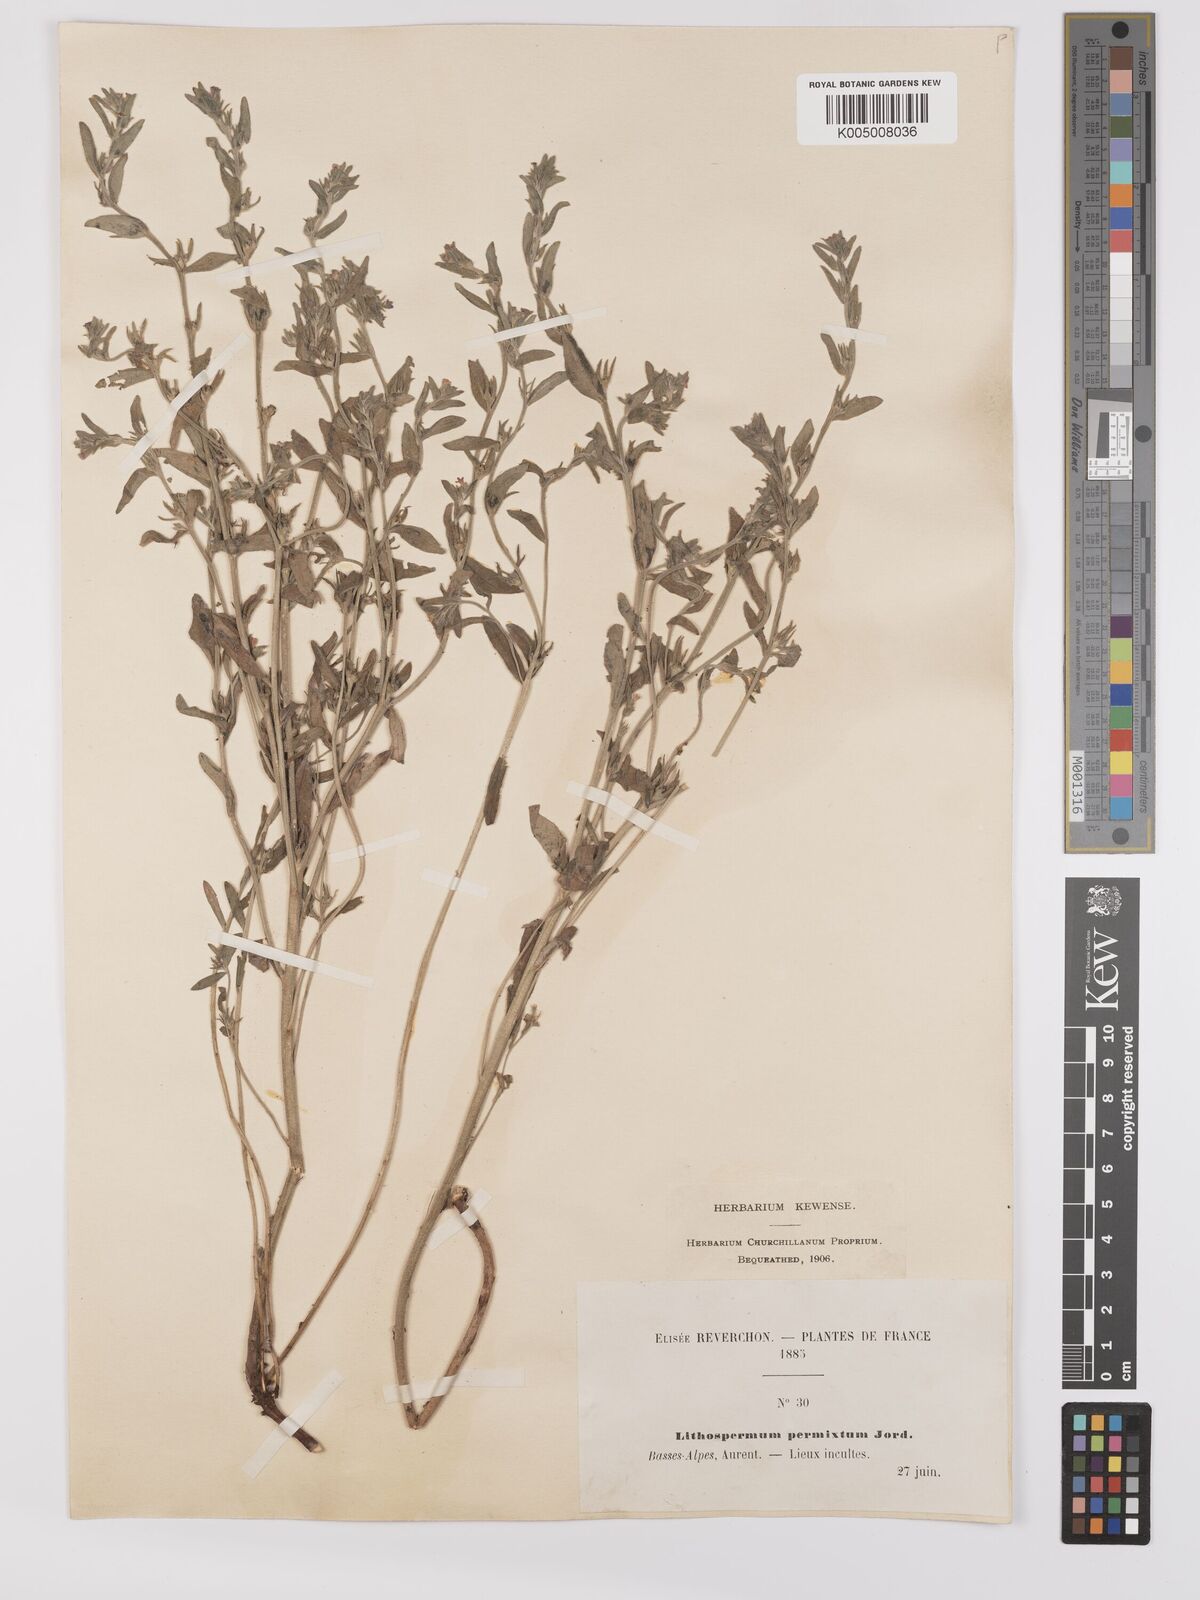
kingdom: Plantae
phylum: Tracheophyta
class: Magnoliopsida
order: Boraginales
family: Boraginaceae
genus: Buglossoides
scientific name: Buglossoides incrassata
